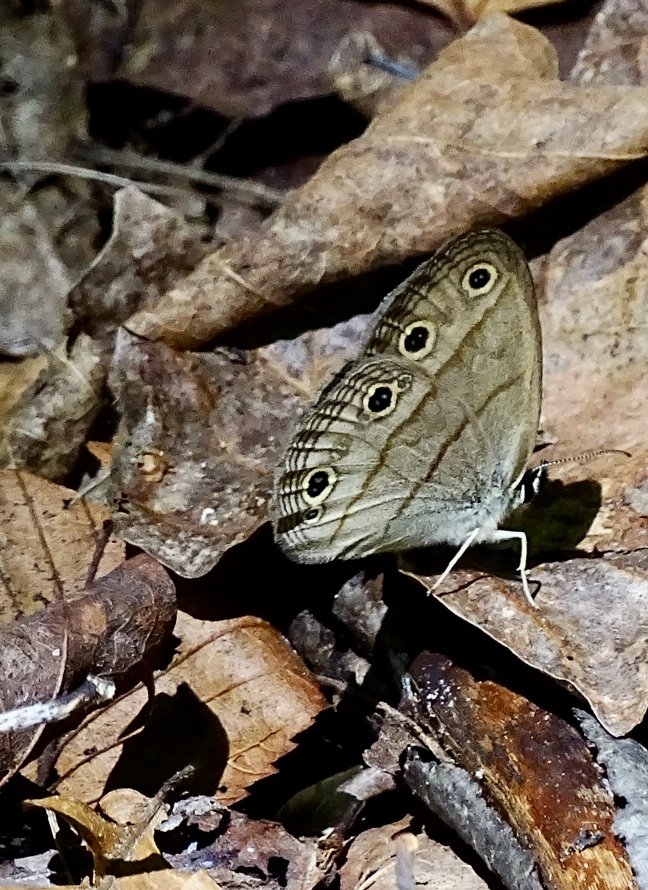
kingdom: Animalia
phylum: Arthropoda
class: Insecta
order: Lepidoptera
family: Nymphalidae
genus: Euptychia
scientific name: Euptychia cymela
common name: Little Wood Satyr
